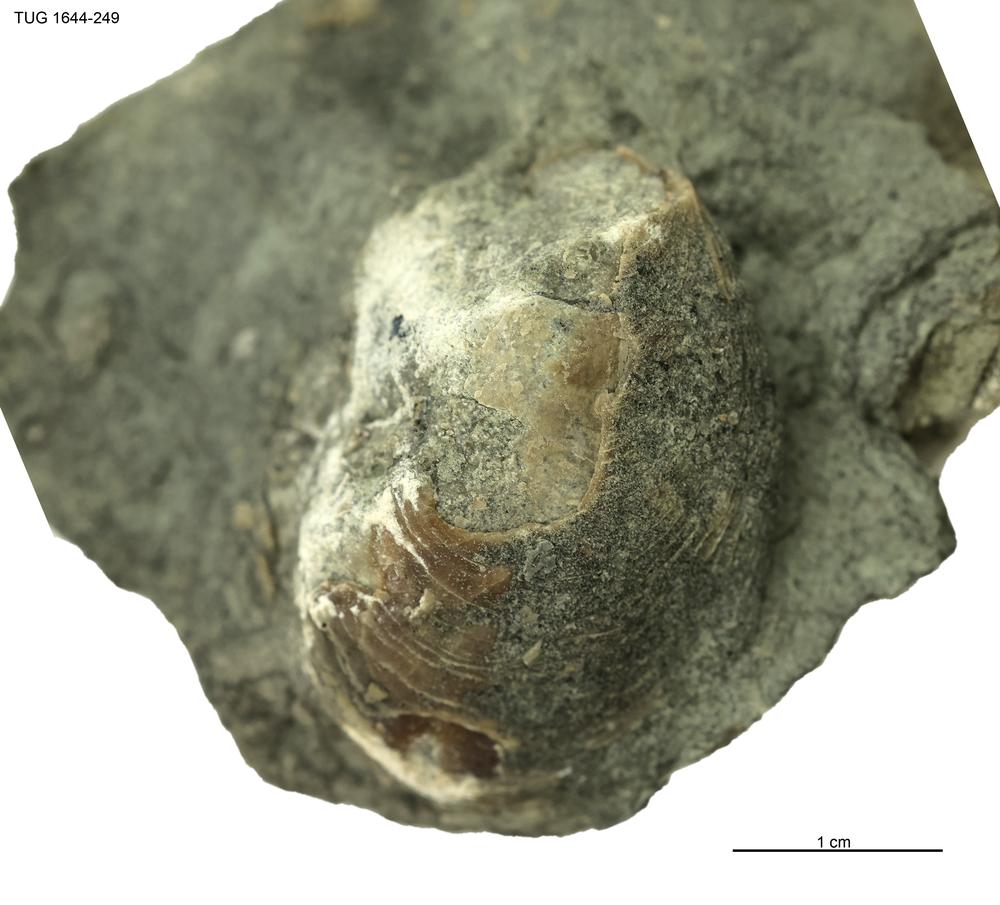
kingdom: Animalia
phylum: Mollusca
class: Monoplacophora
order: Tryblidiida
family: Tryblidiidae
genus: Pilina
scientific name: Pilina
